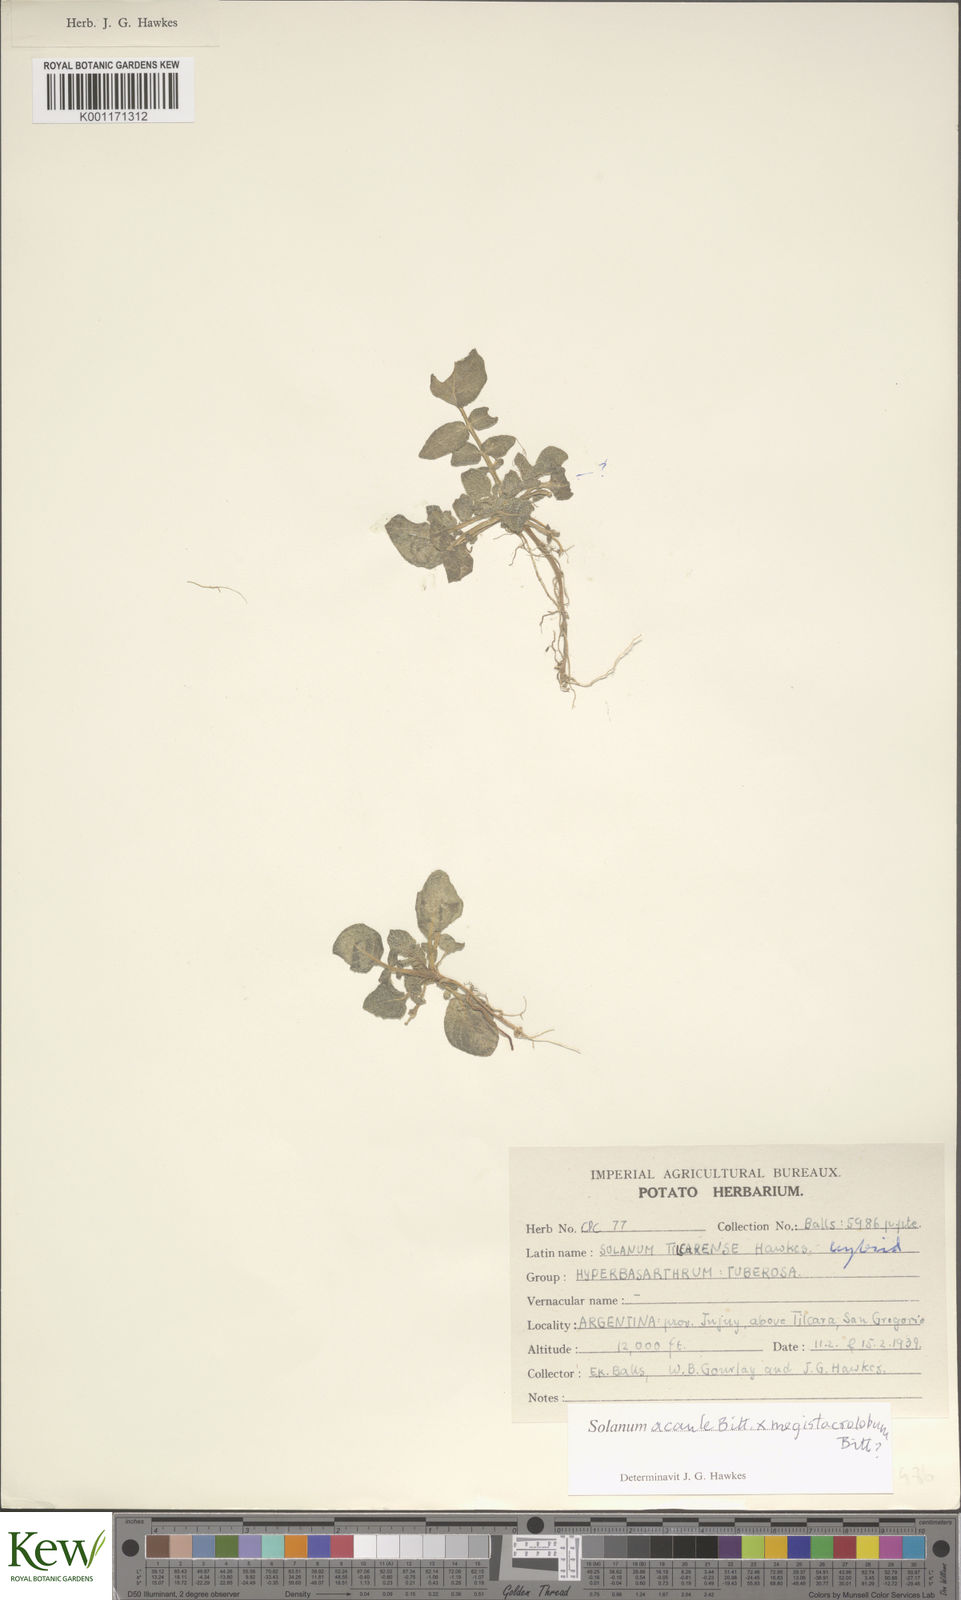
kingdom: Plantae
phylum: Tracheophyta
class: Magnoliopsida
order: Solanales
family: Solanaceae
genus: Solanum
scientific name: Solanum boliviense
